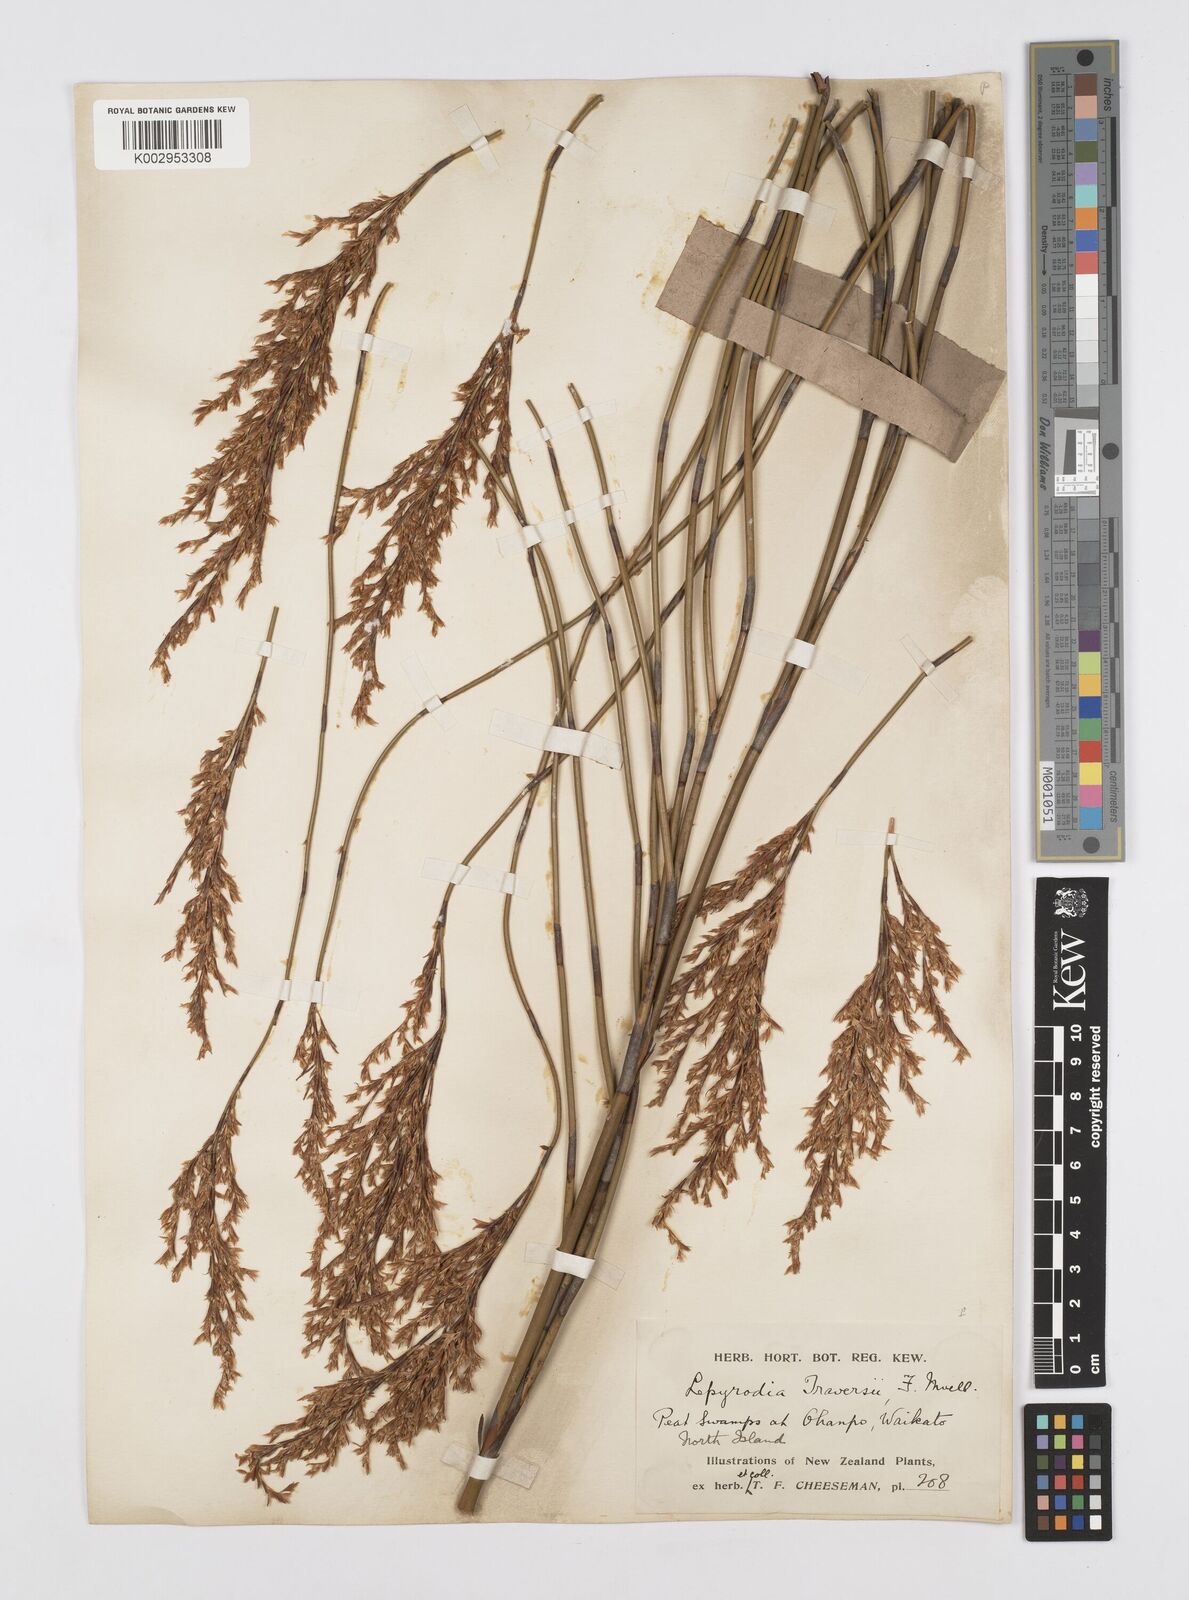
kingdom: Plantae
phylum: Tracheophyta
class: Liliopsida
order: Poales
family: Restionaceae
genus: Sporadanthus
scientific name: Sporadanthus traversii
